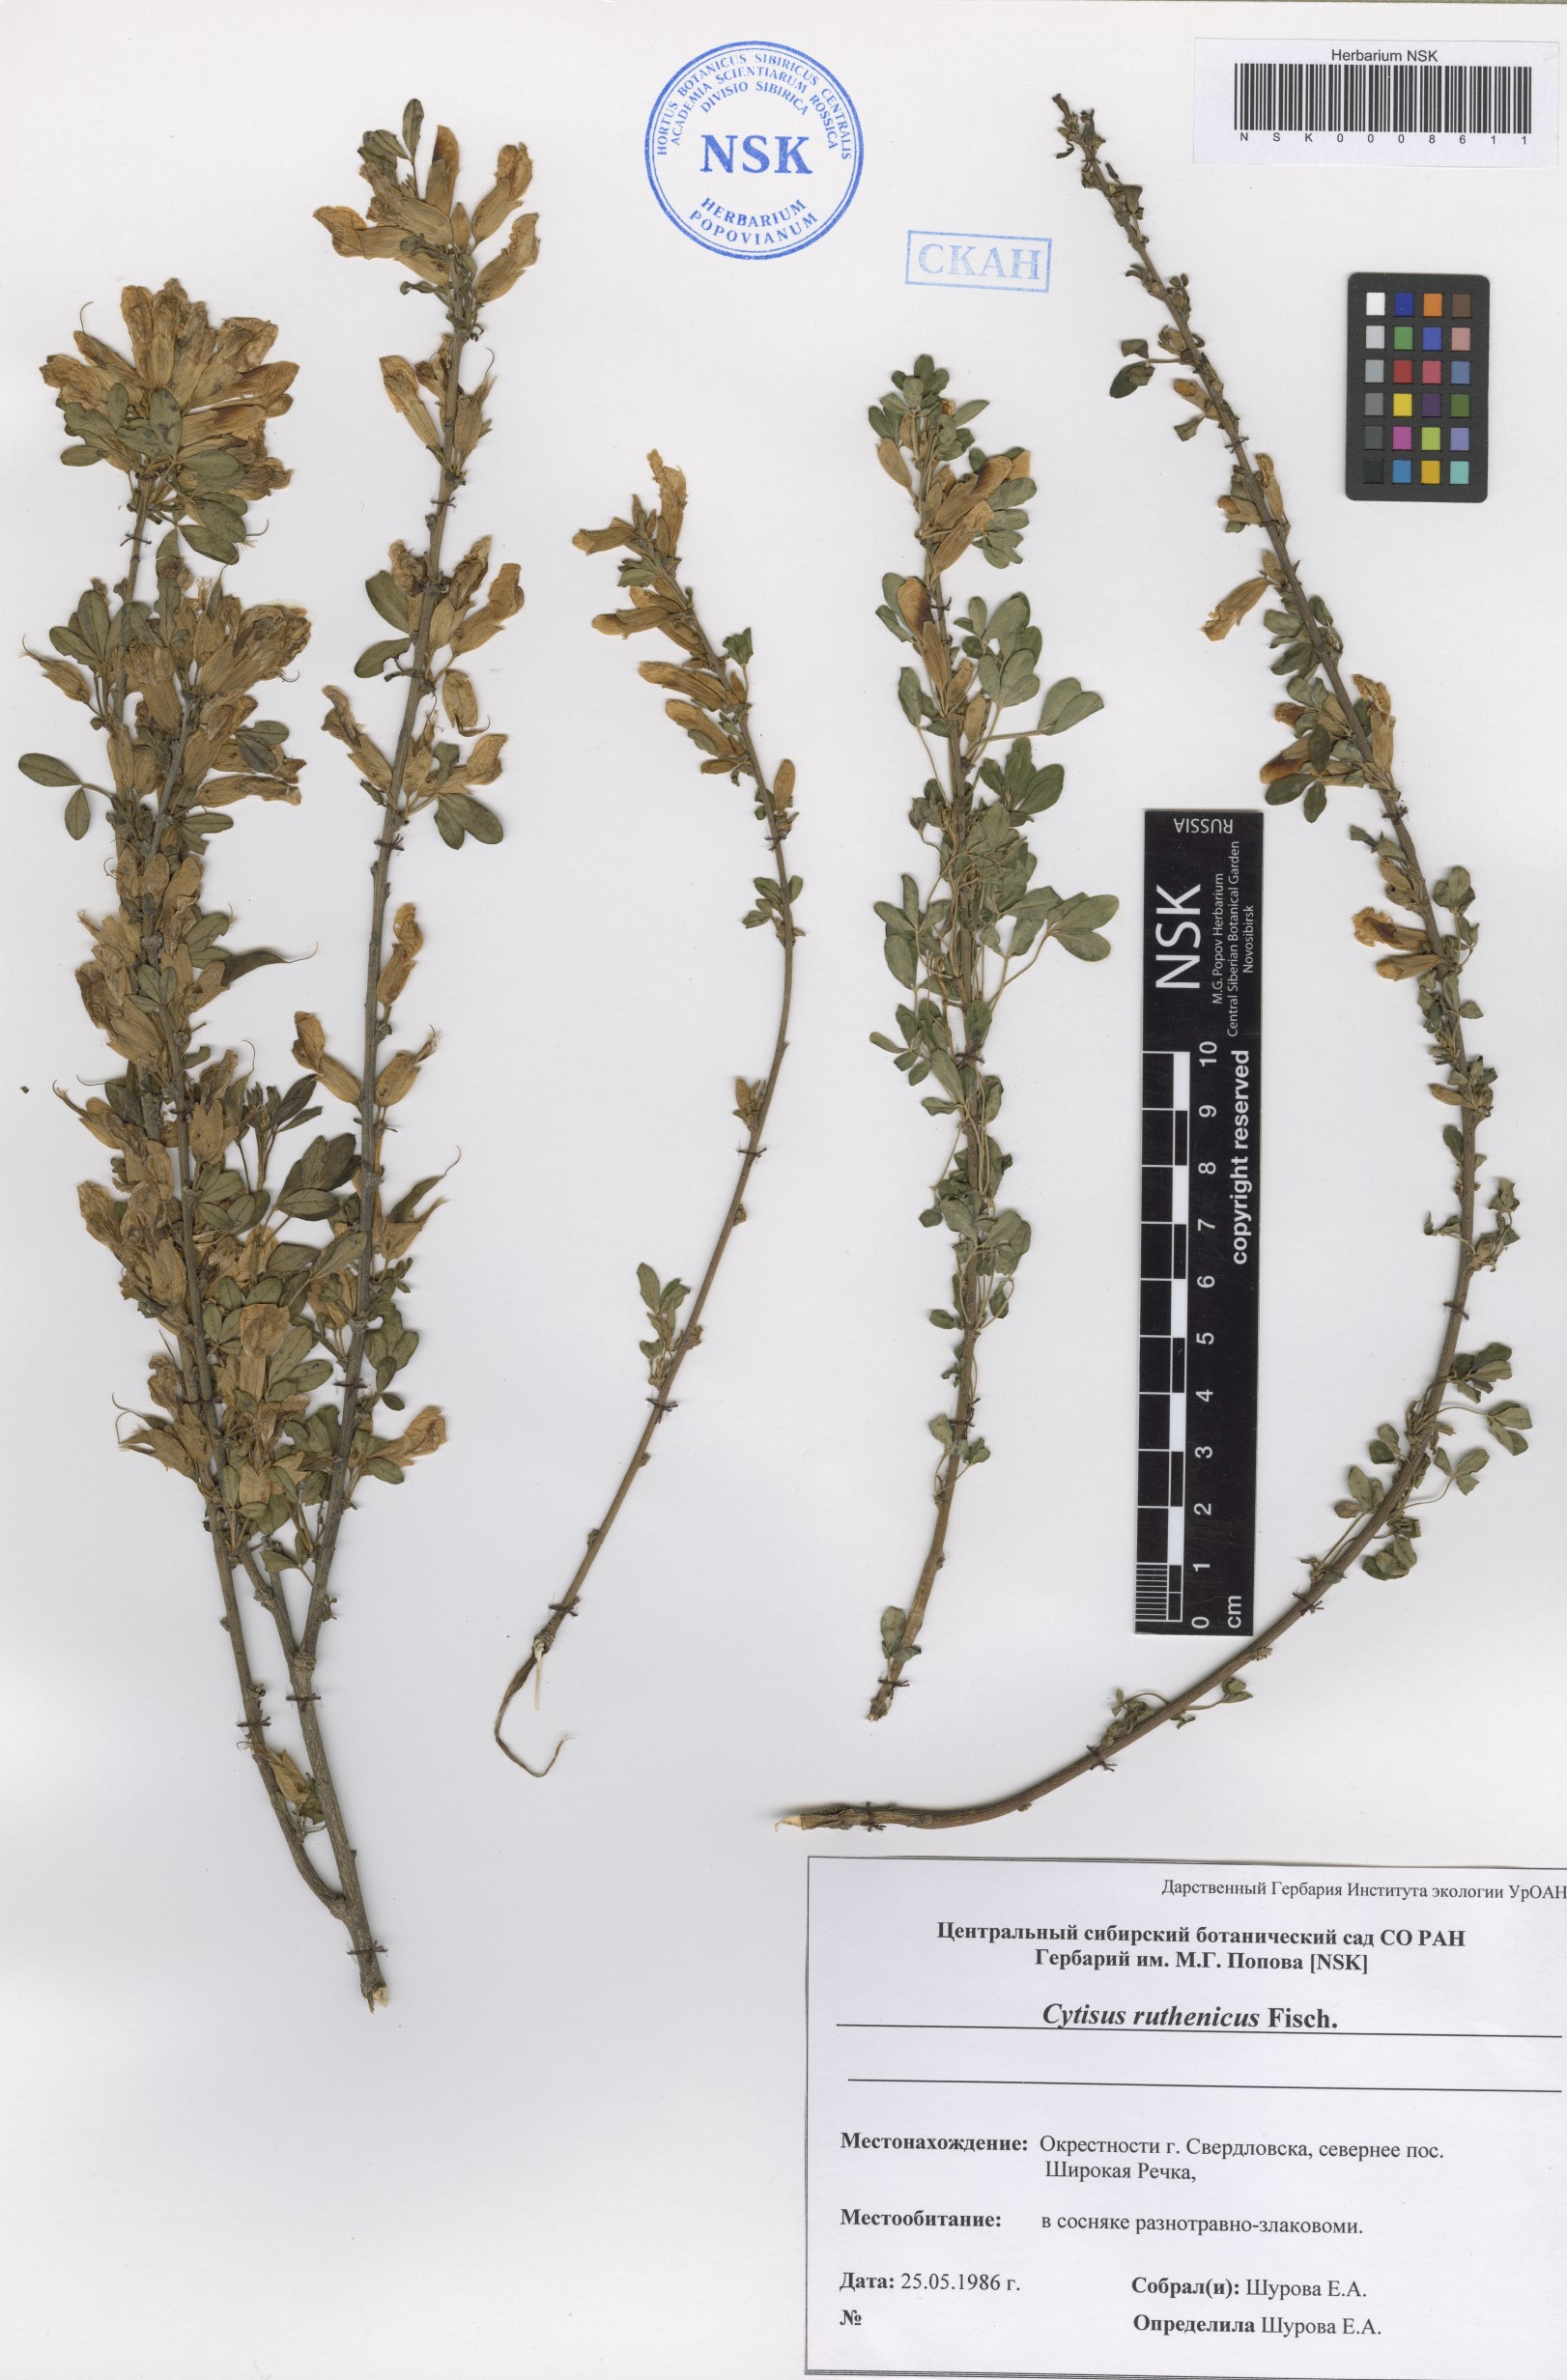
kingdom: Plantae
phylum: Tracheophyta
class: Magnoliopsida
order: Fabales
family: Fabaceae
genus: Chamaecytisus
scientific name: Chamaecytisus ruthenicus
